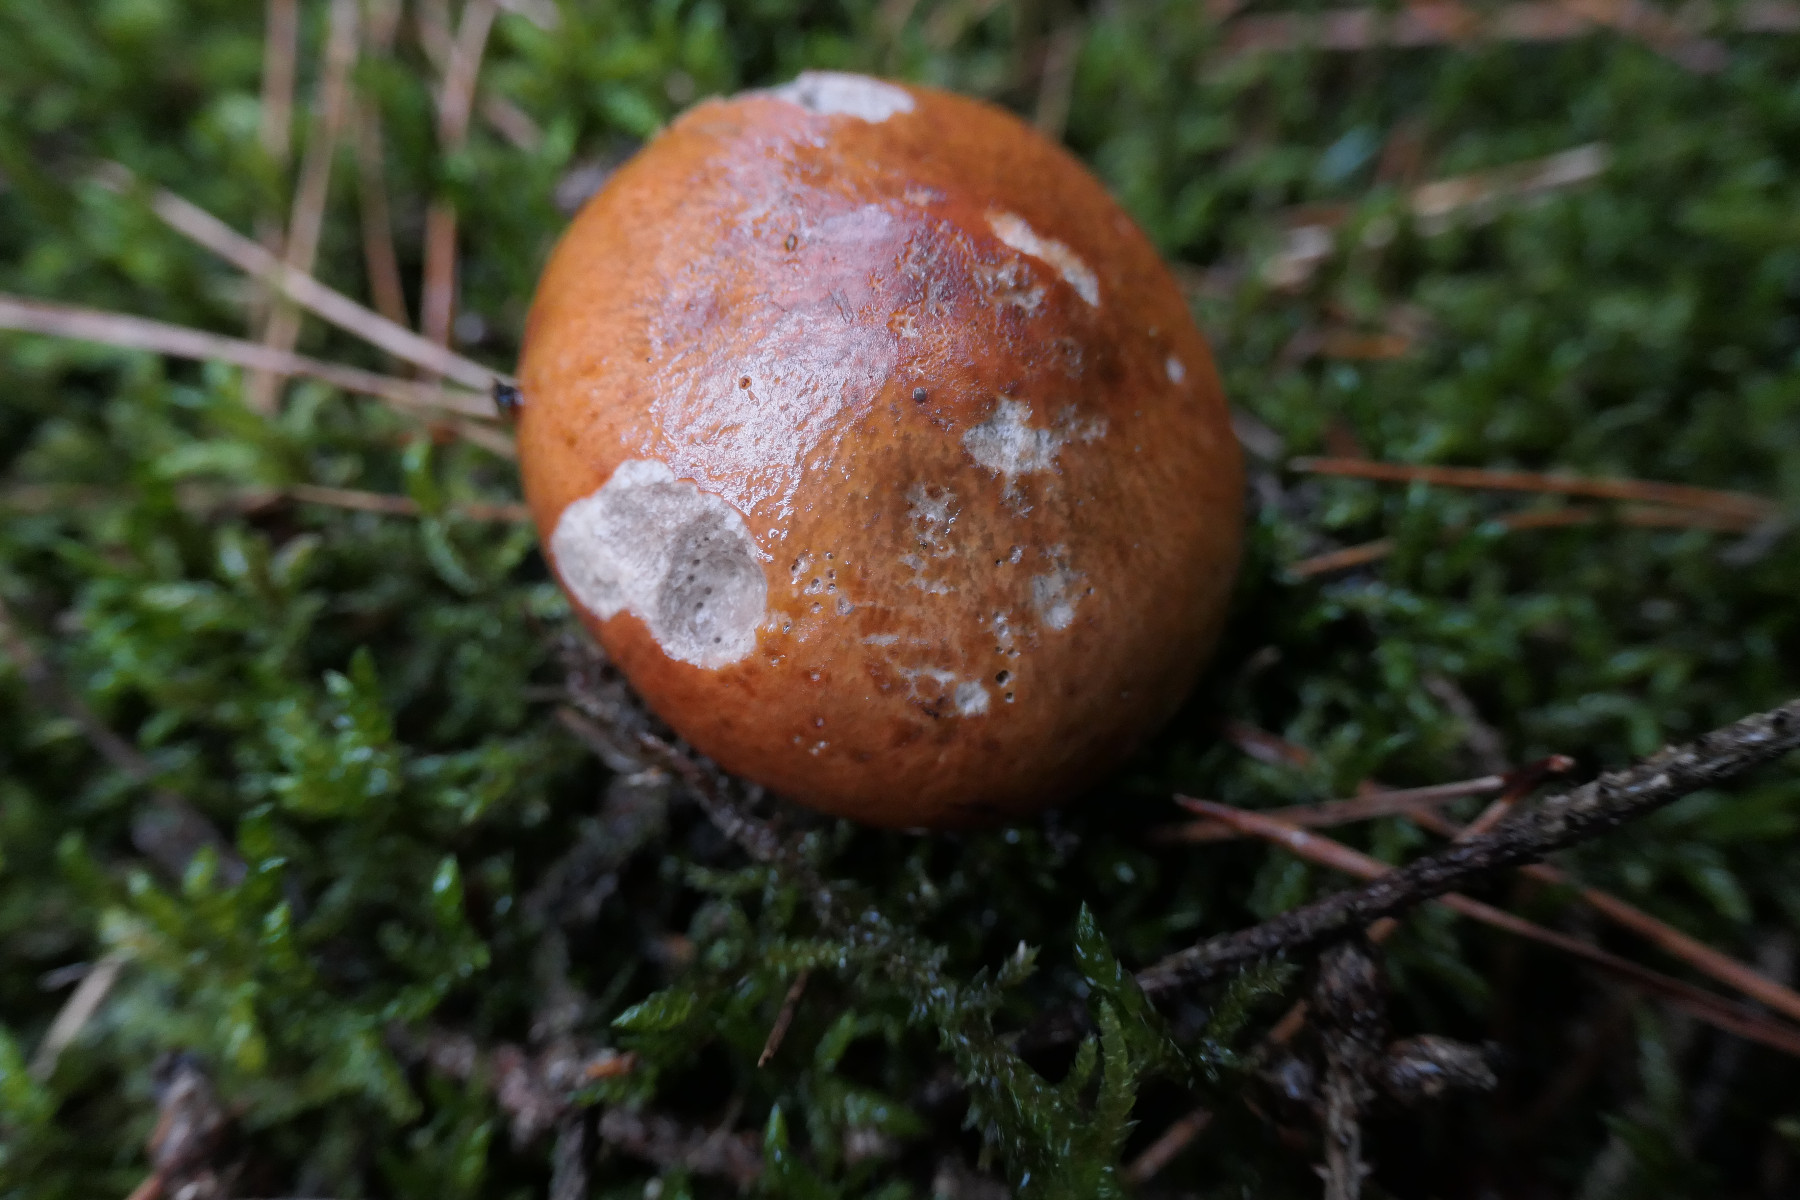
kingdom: Fungi
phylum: Basidiomycota
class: Agaricomycetes
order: Russulales
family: Russulaceae
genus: Russula
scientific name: Russula decolorans
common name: afblegende skørhat
